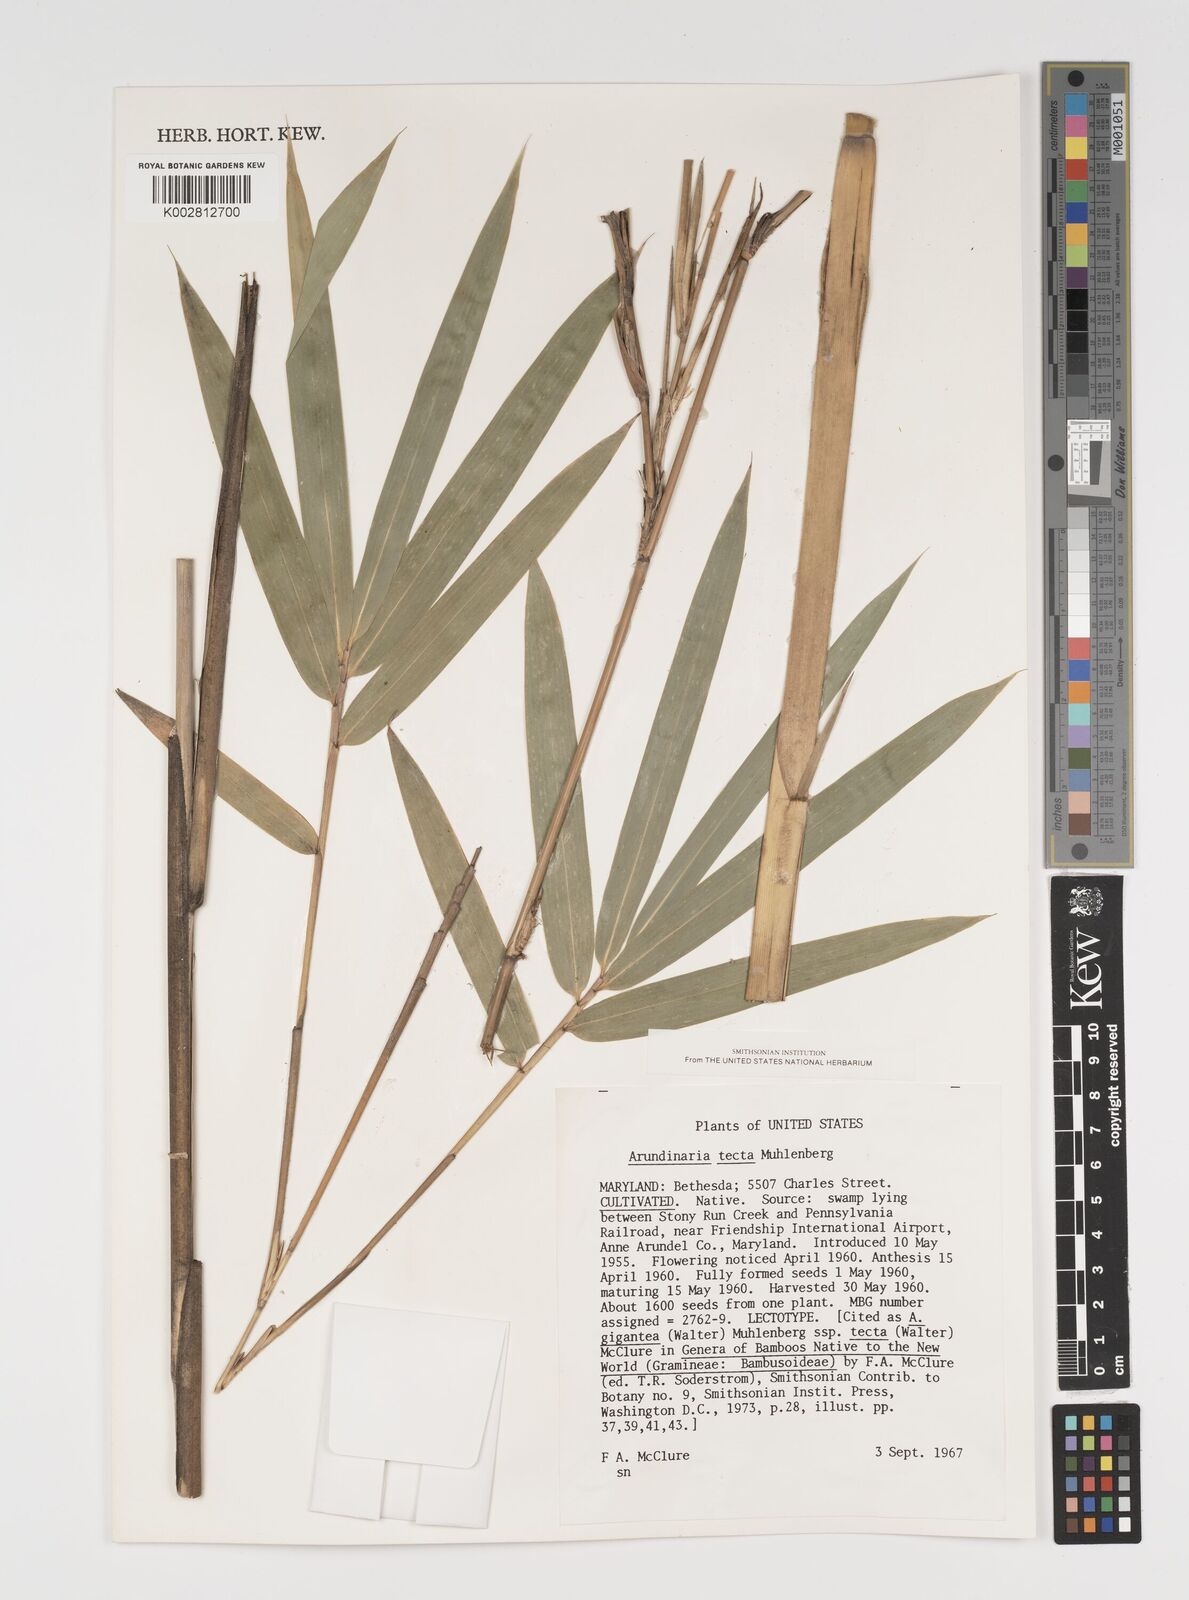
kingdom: Plantae
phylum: Tracheophyta
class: Liliopsida
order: Poales
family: Poaceae
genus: Arundinaria
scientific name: Arundinaria tecta
